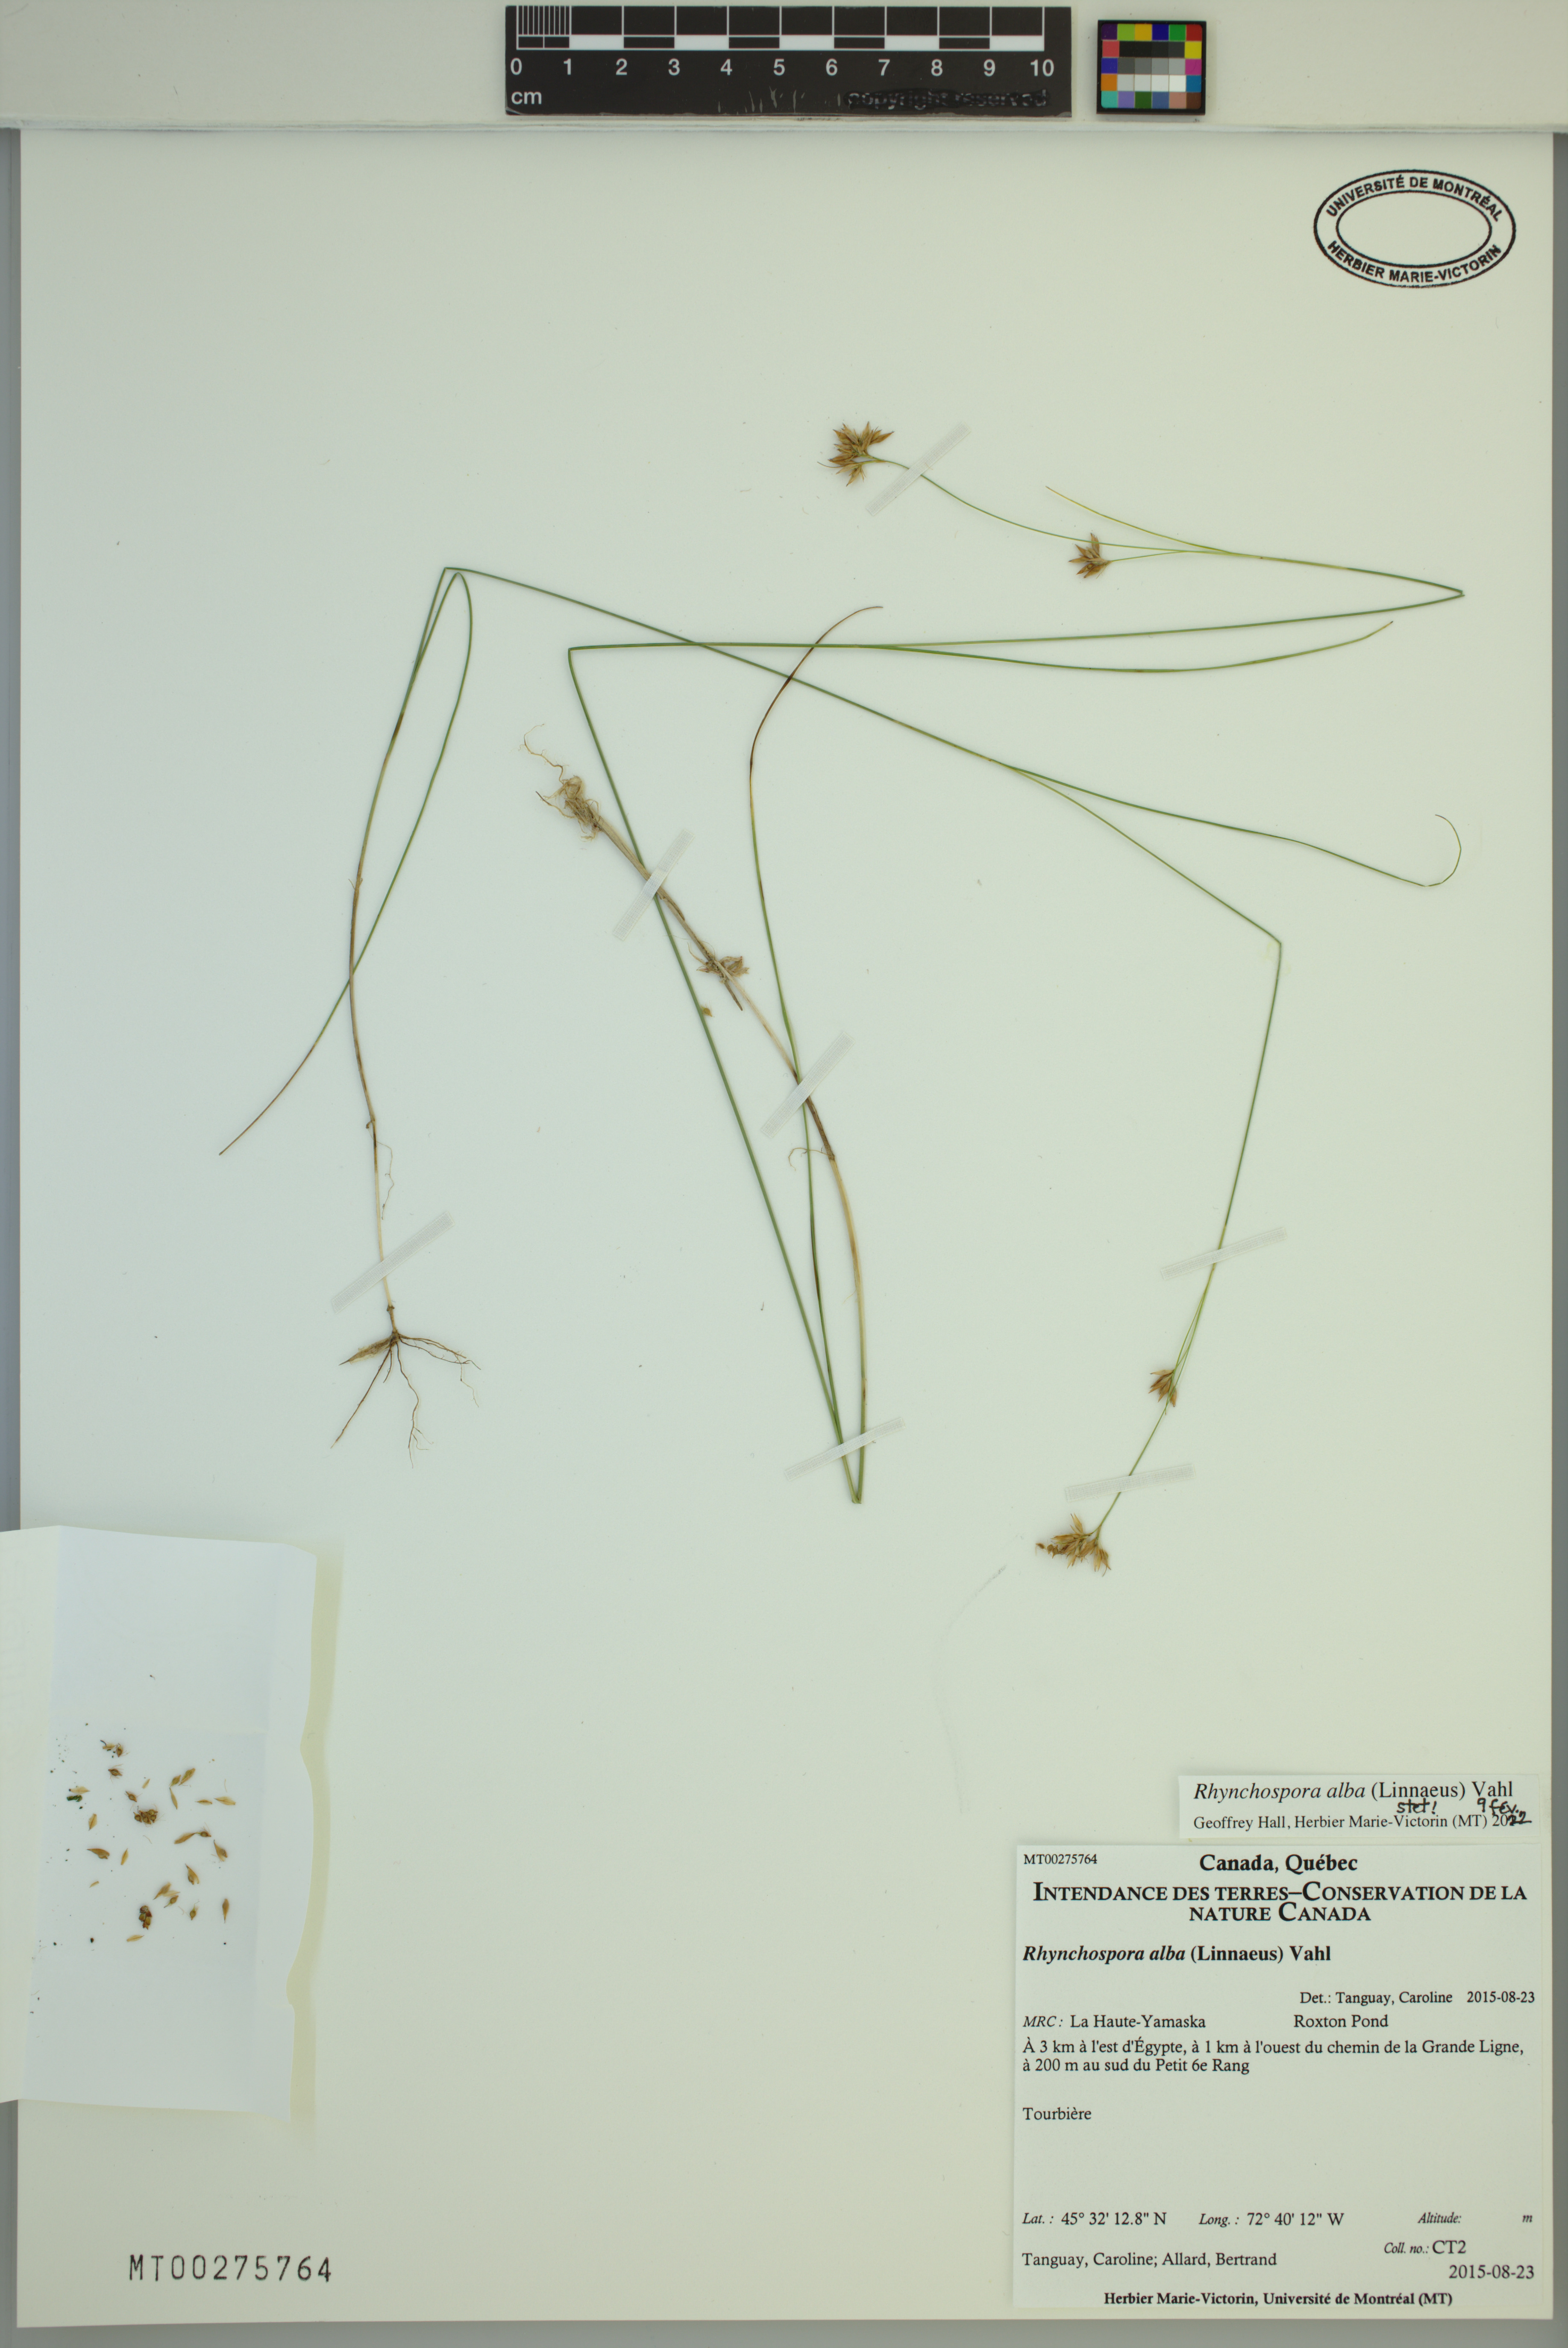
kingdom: Plantae
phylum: Tracheophyta
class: Liliopsida
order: Poales
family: Cyperaceae
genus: Rhynchospora
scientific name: Rhynchospora alba
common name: White beak-sedge
